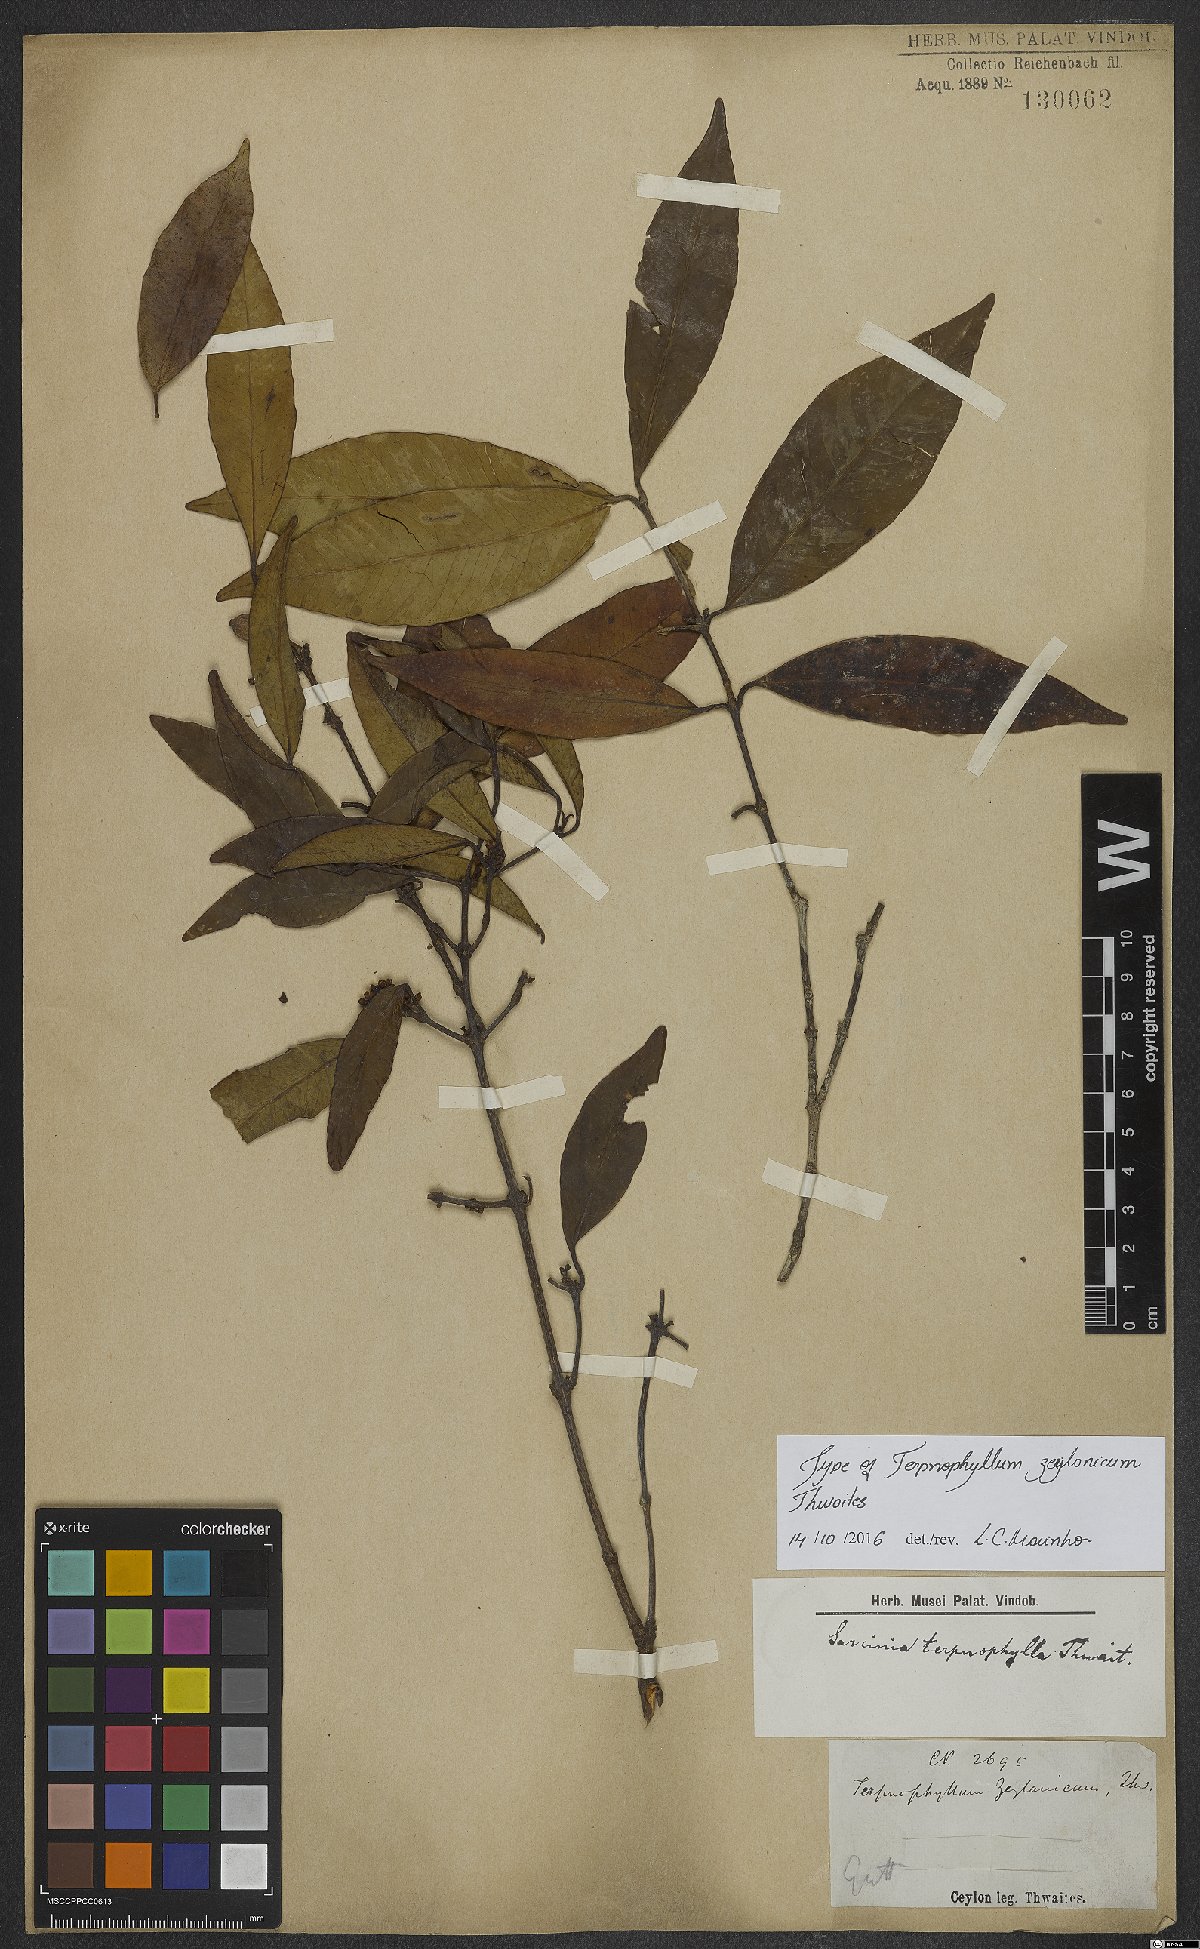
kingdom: Plantae
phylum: Tracheophyta
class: Magnoliopsida
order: Malpighiales
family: Clusiaceae
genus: Garcinia
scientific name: Garcinia terpnophylla
